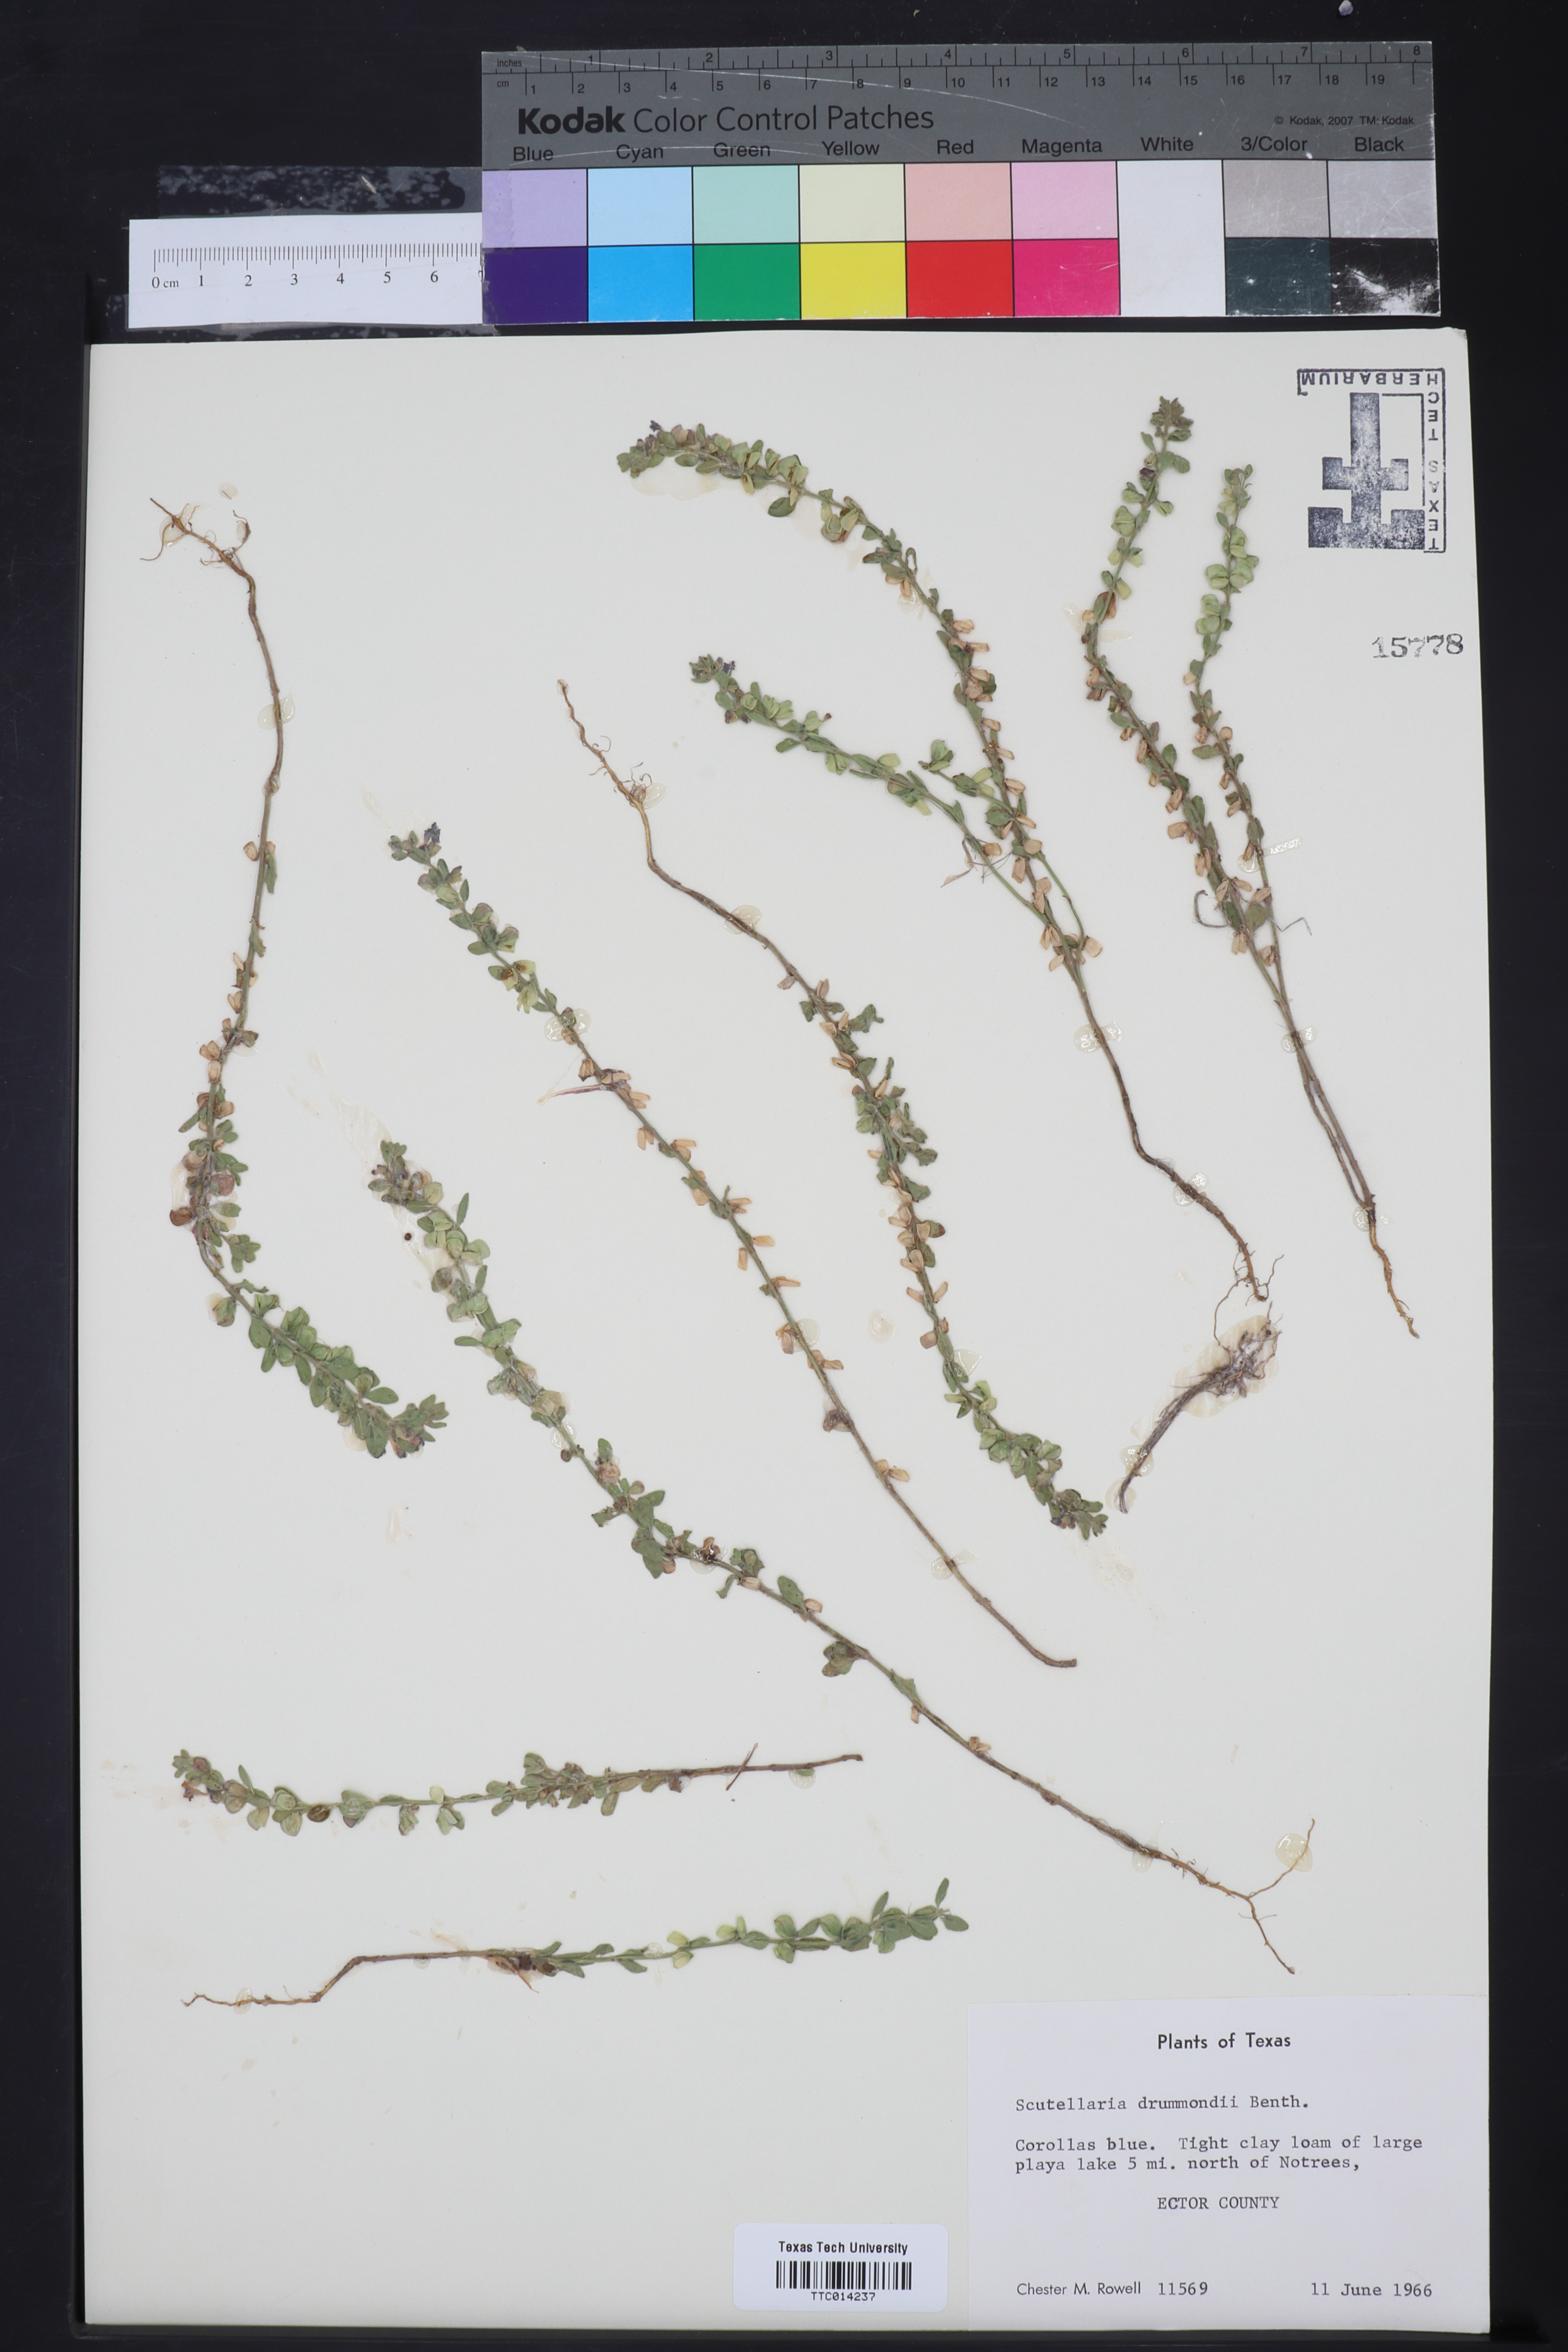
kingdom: Plantae
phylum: Tracheophyta
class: Magnoliopsida
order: Lamiales
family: Lamiaceae
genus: Scutellaria
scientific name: Scutellaria drummondii
